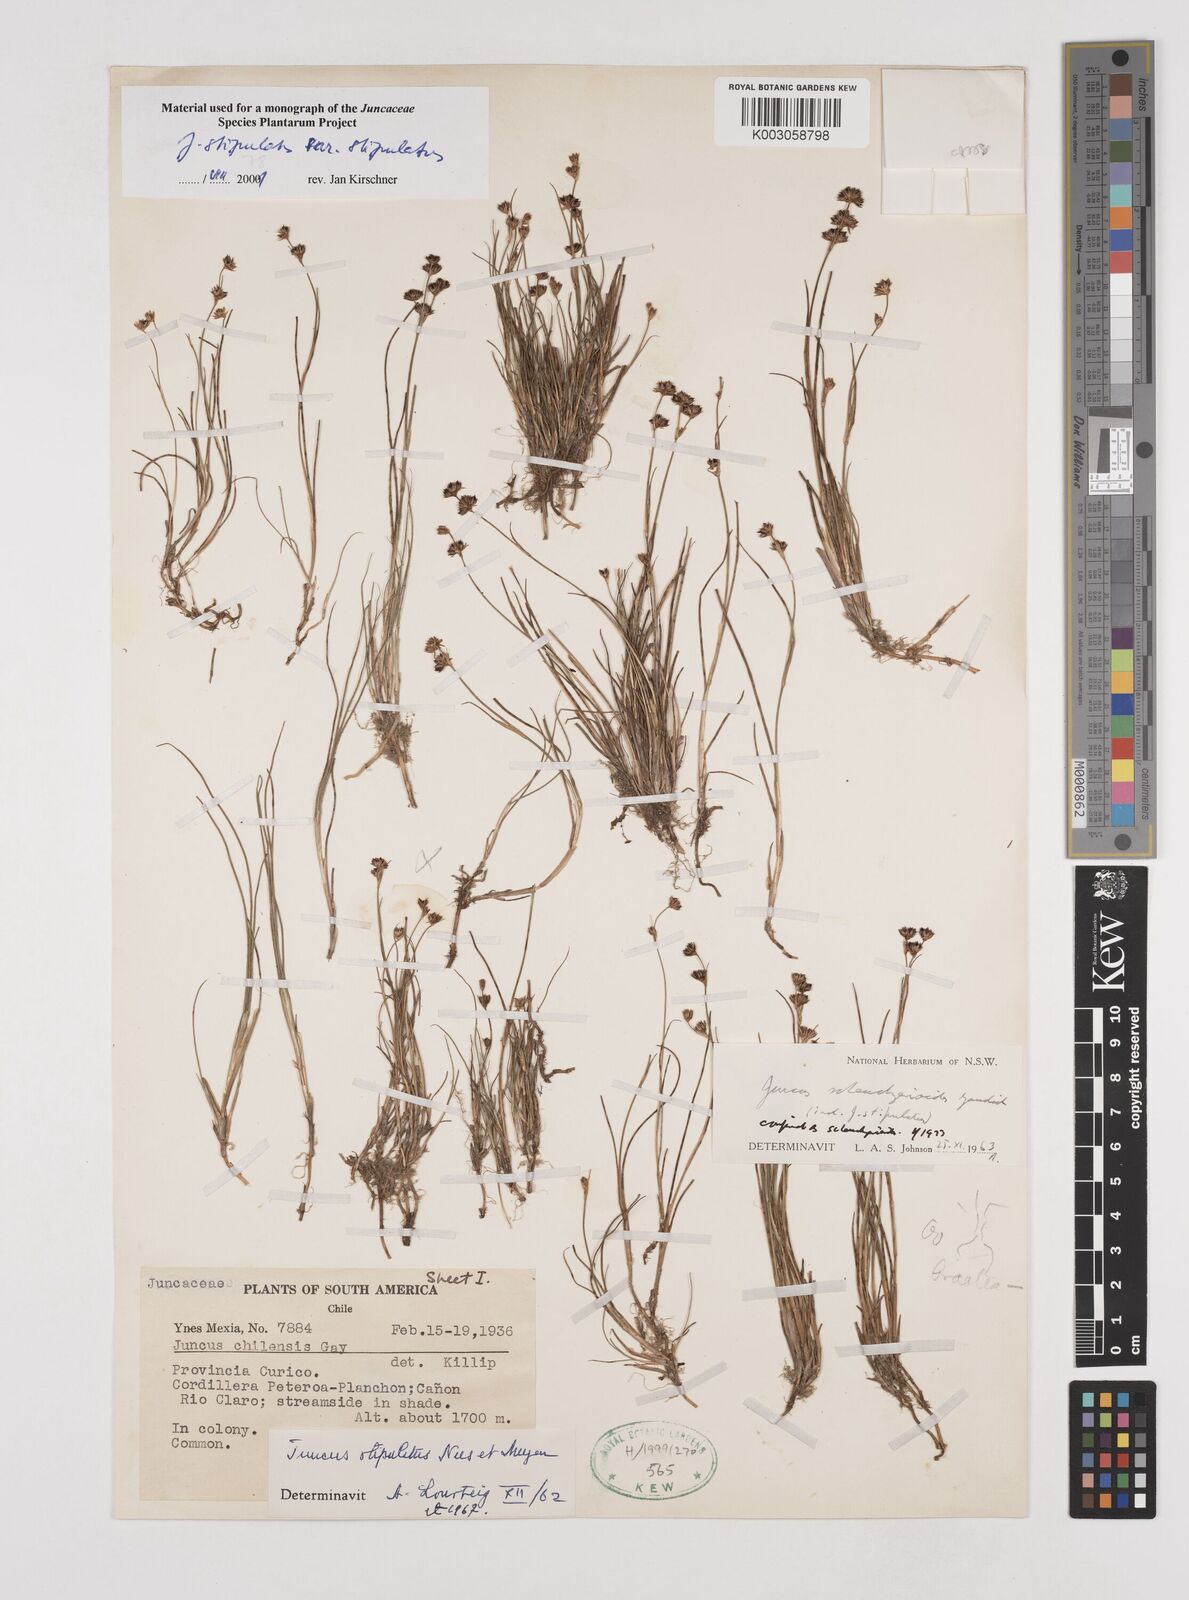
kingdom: Plantae
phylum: Tracheophyta
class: Liliopsida
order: Poales
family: Juncaceae
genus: Juncus
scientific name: Juncus scheuchzerioides
